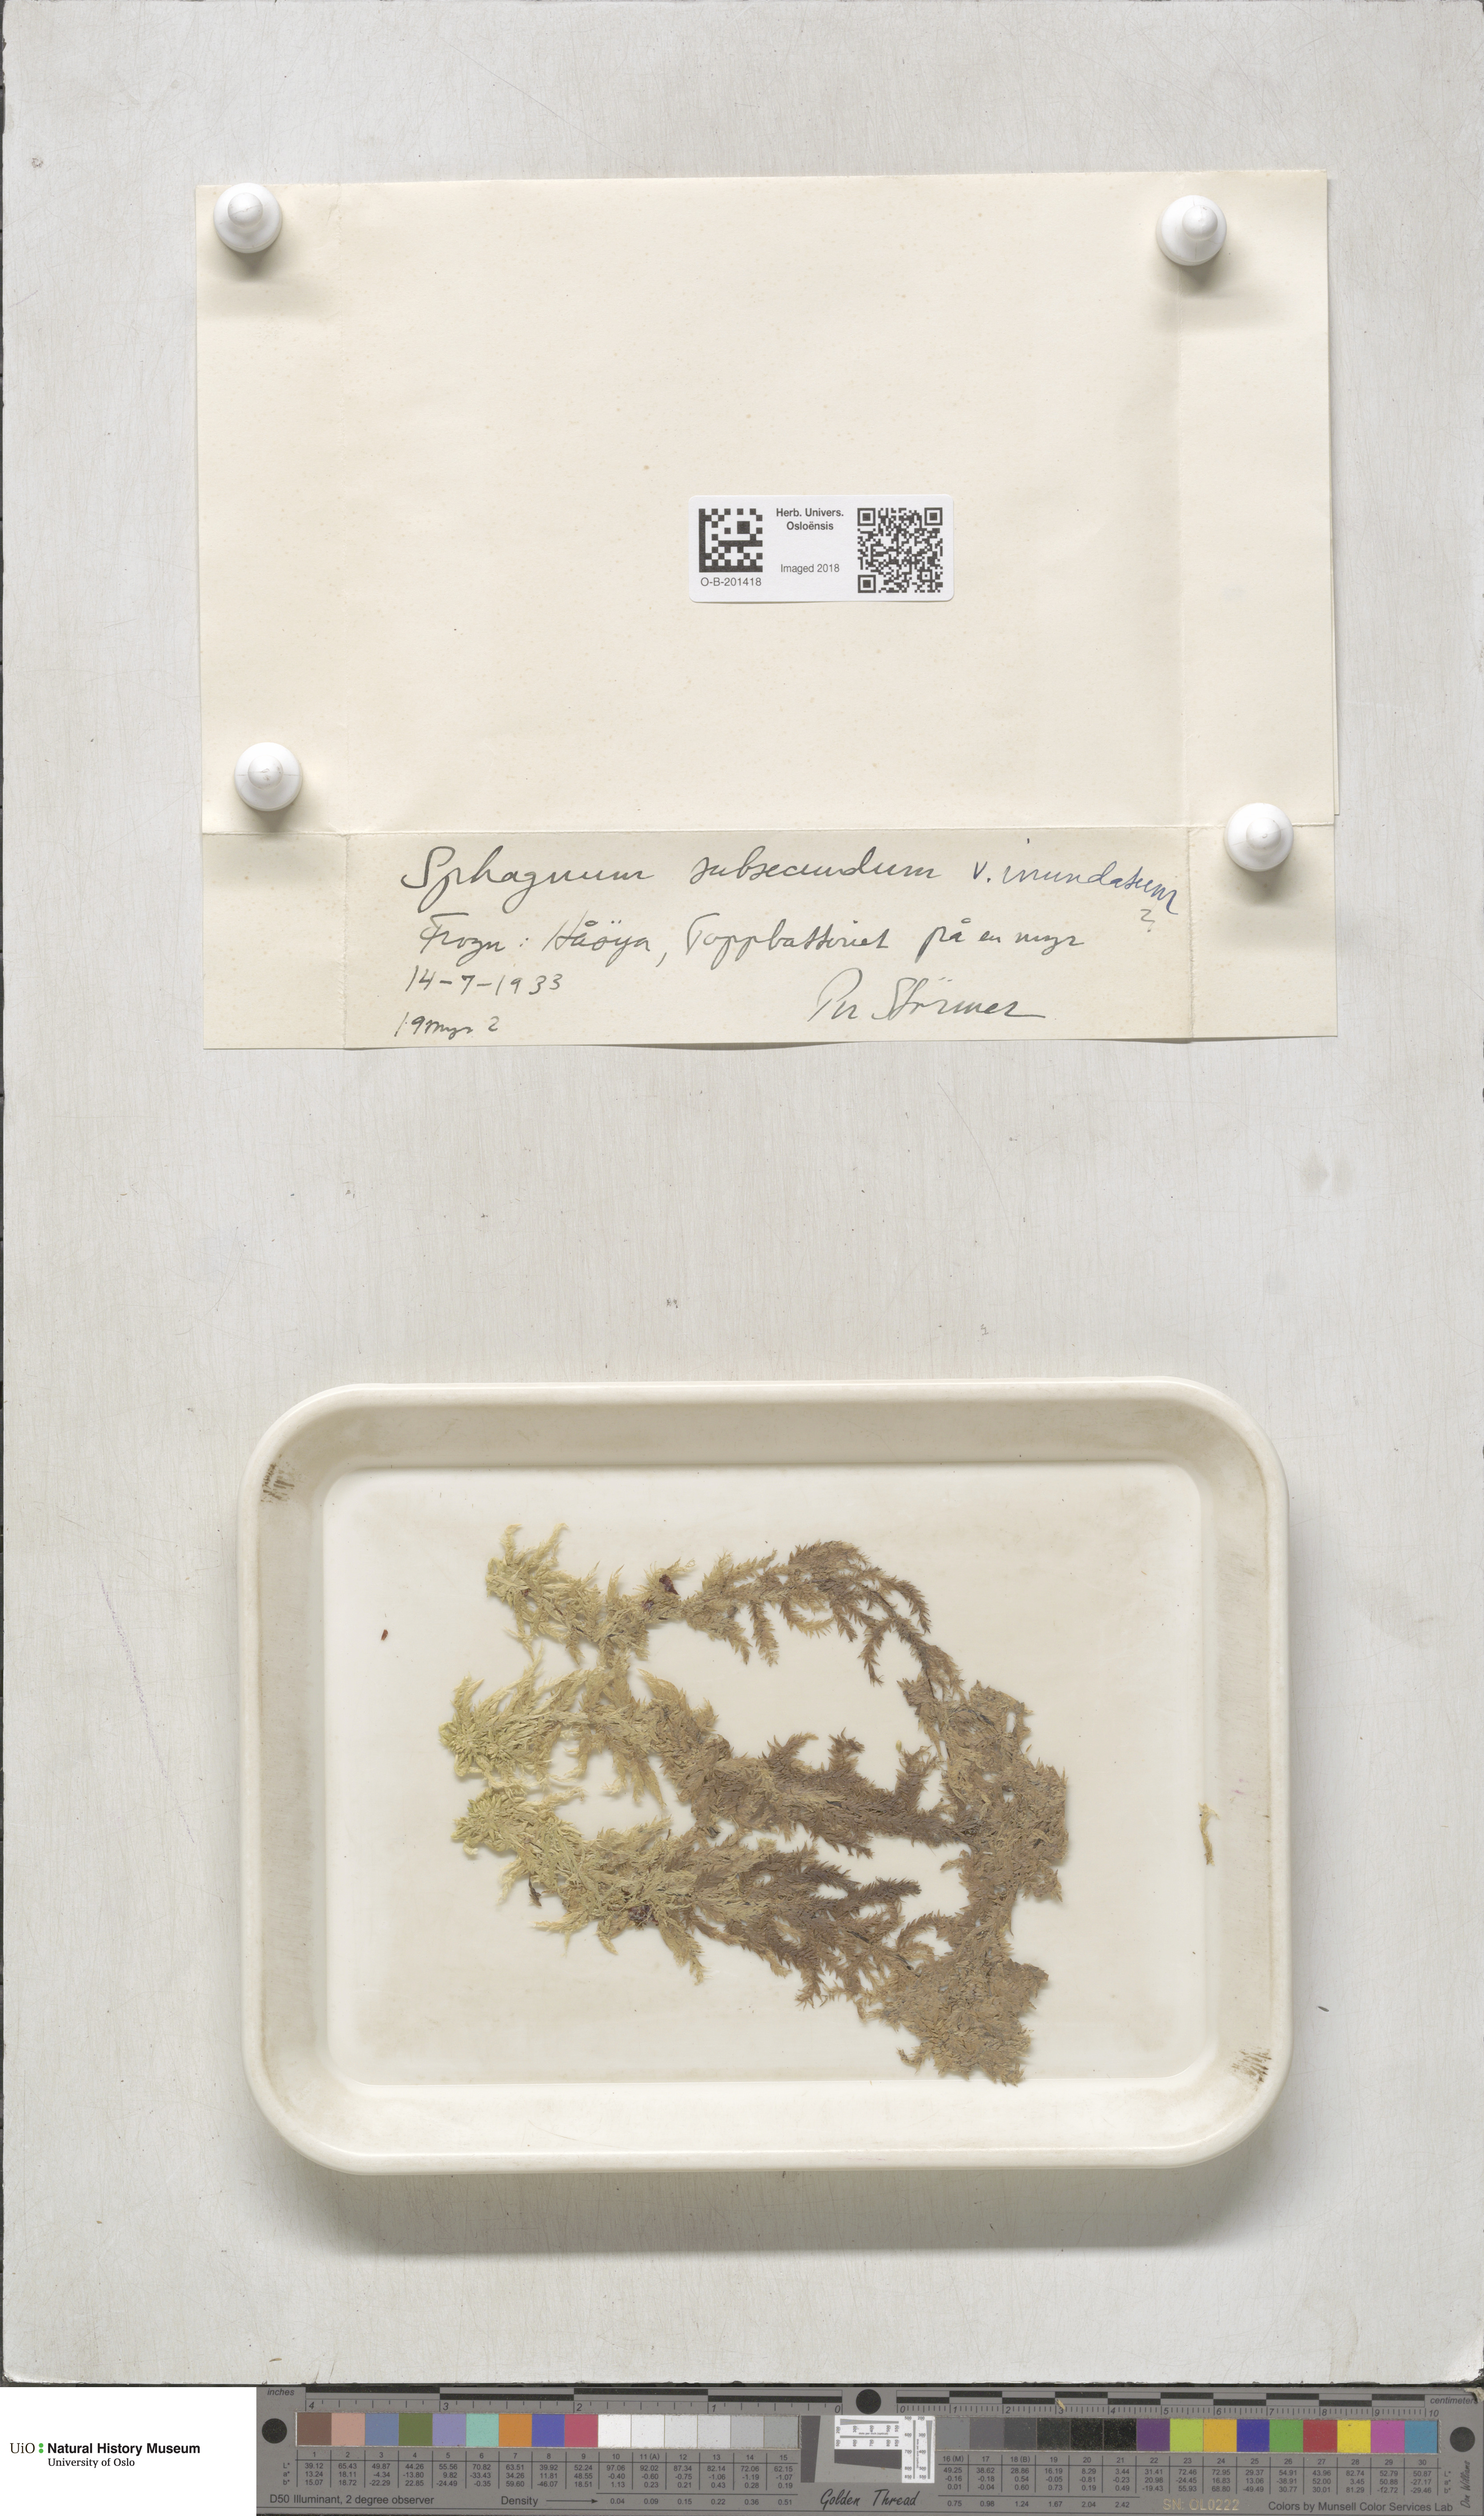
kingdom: Plantae
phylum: Bryophyta
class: Sphagnopsida
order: Sphagnales
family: Sphagnaceae
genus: Sphagnum
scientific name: Sphagnum inundatum
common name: Lesser cow-horn bog-moss
